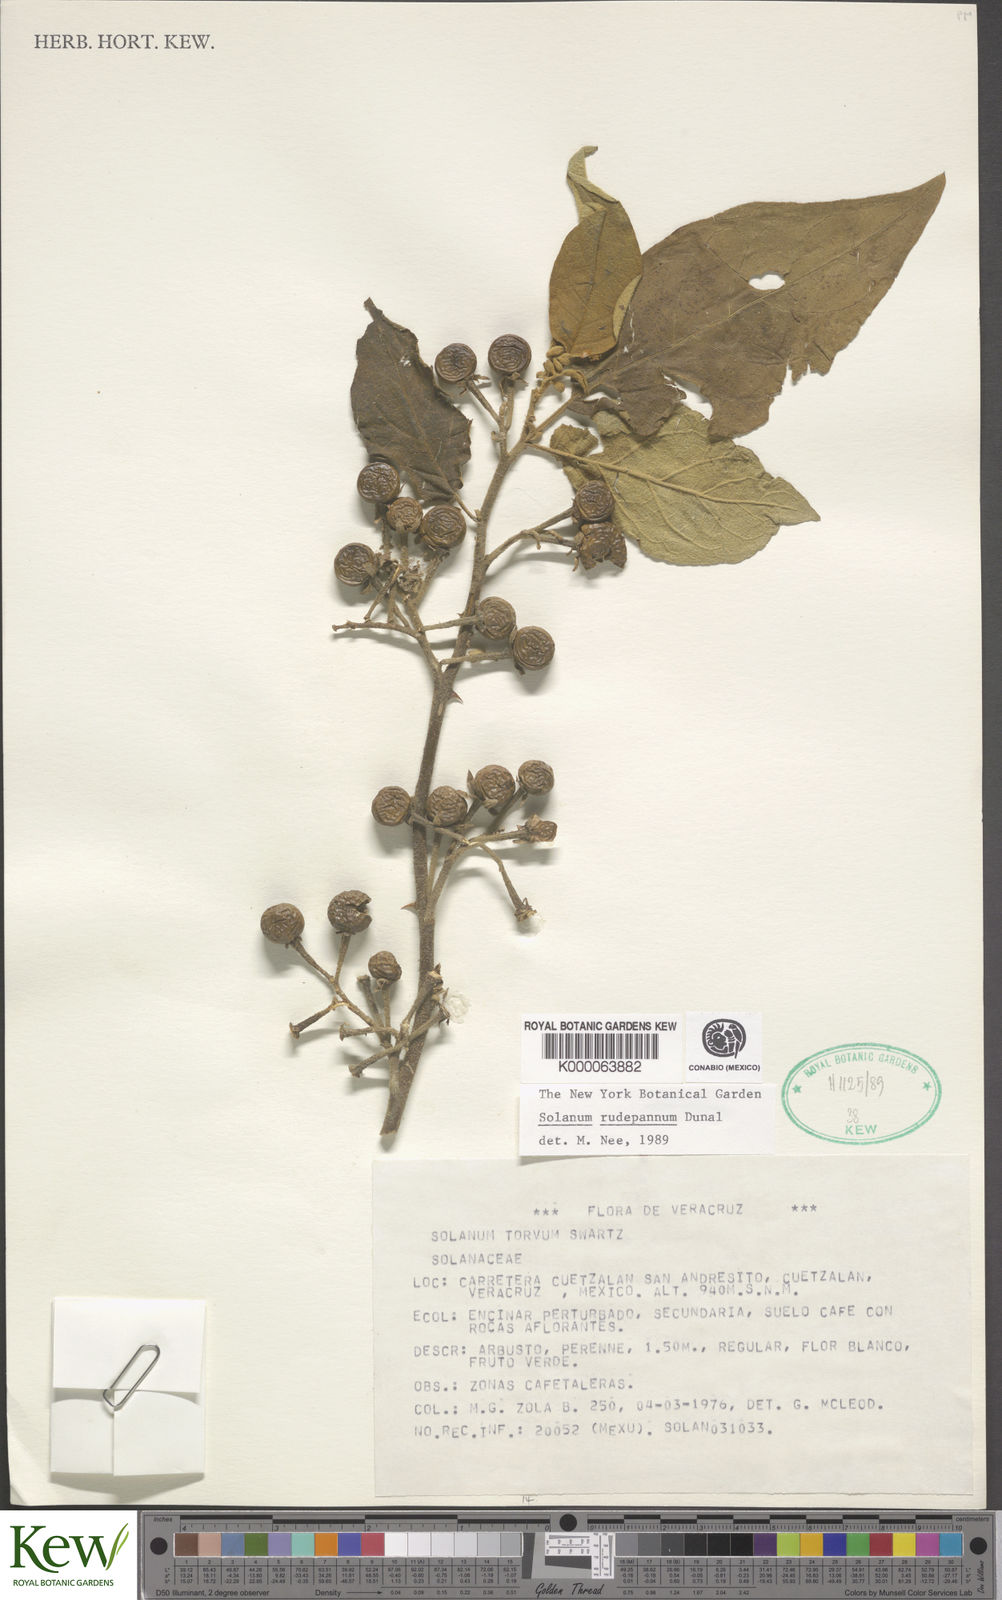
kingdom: Plantae
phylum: Tracheophyta
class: Magnoliopsida
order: Solanales
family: Solanaceae
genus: Solanum
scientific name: Solanum rude-pannum
